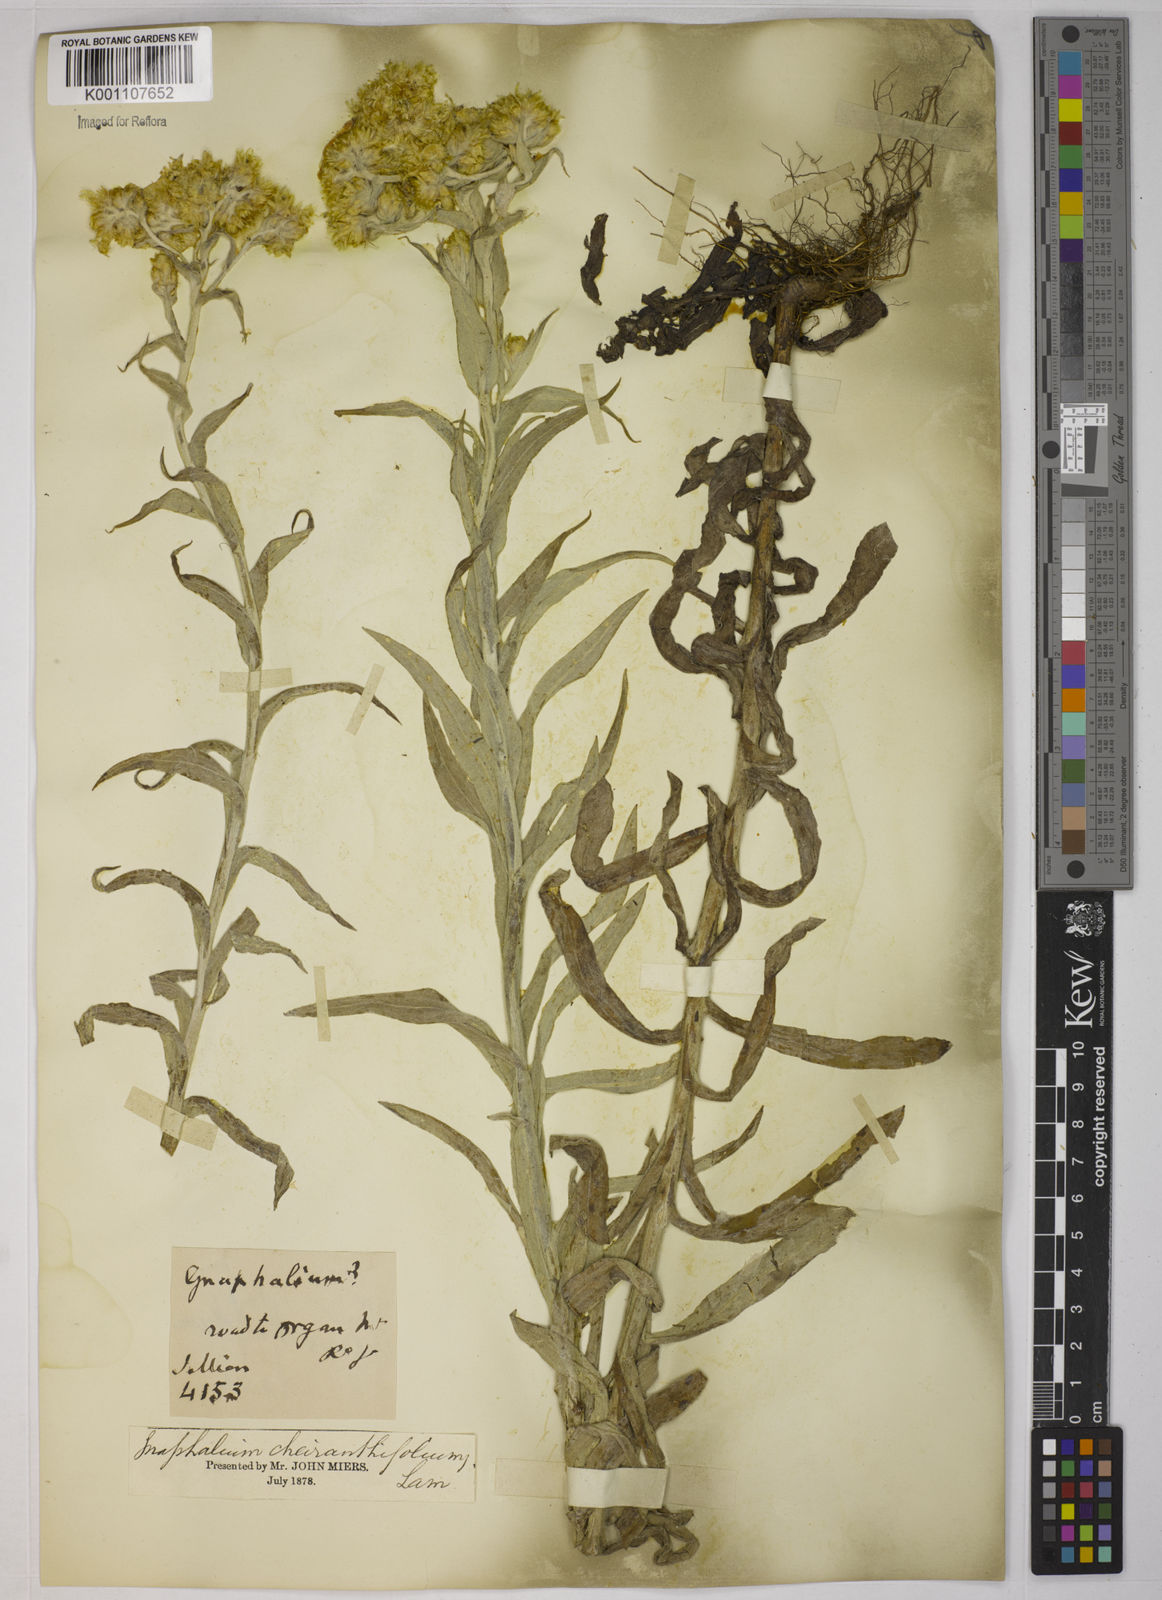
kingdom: Plantae
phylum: Tracheophyta
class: Magnoliopsida
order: Asterales
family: Asteraceae
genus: Pseudognaphalium
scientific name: Pseudognaphalium cheiranthifolium
